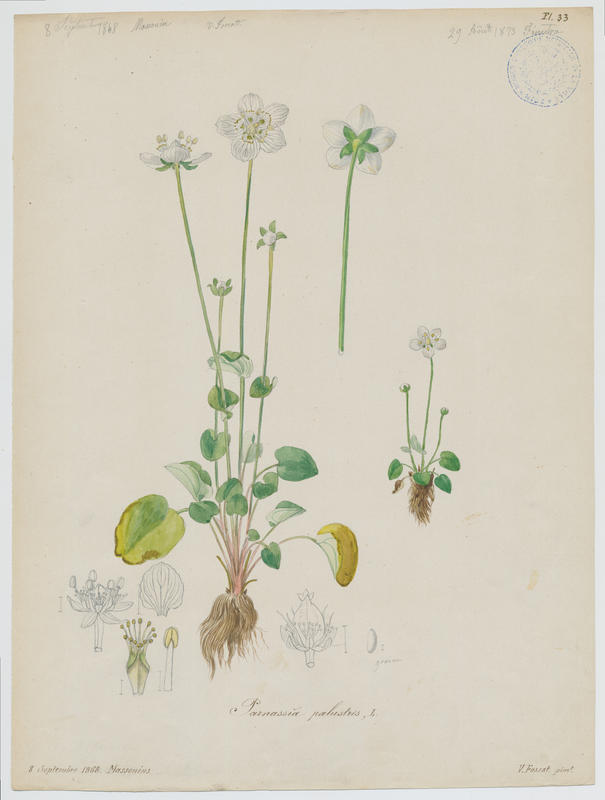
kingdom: Plantae
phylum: Tracheophyta
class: Magnoliopsida
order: Celastrales
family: Parnassiaceae
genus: Parnassia
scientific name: Parnassia palustris
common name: Grass-of-parnassus
